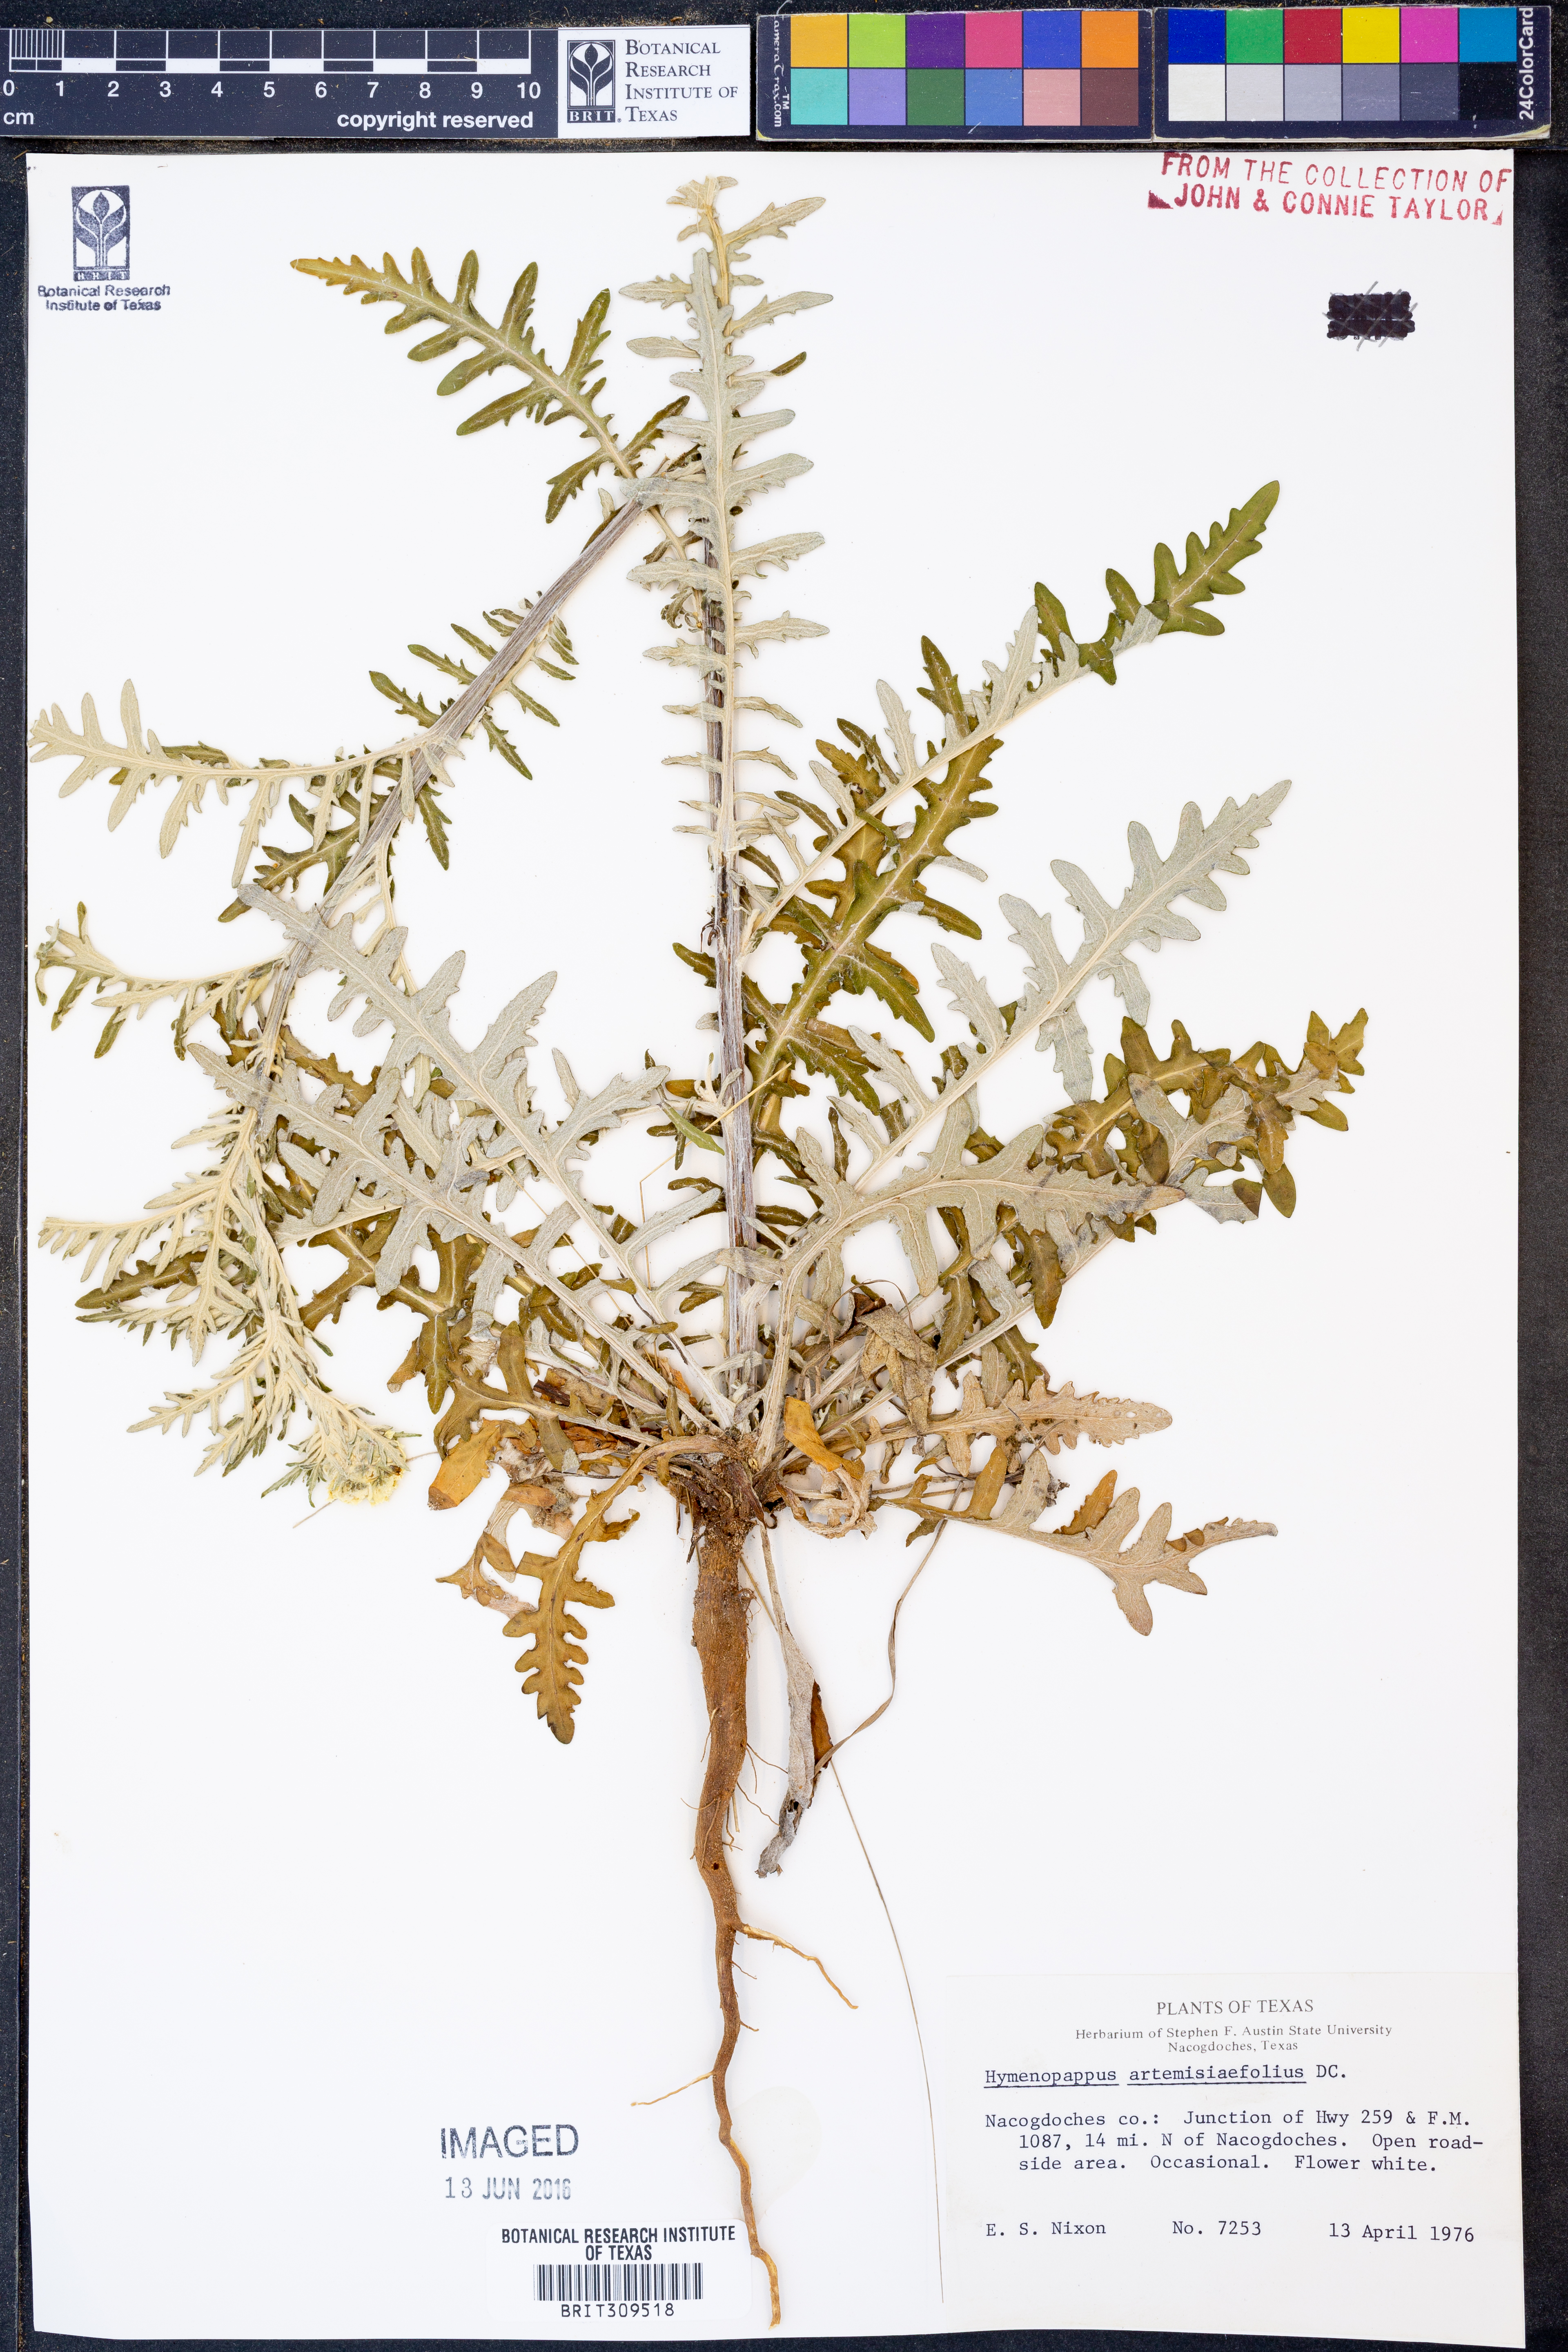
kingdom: Plantae
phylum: Tracheophyta
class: Magnoliopsida
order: Asterales
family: Asteraceae
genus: Hymenopappus
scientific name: Hymenopappus artemisiifolius
